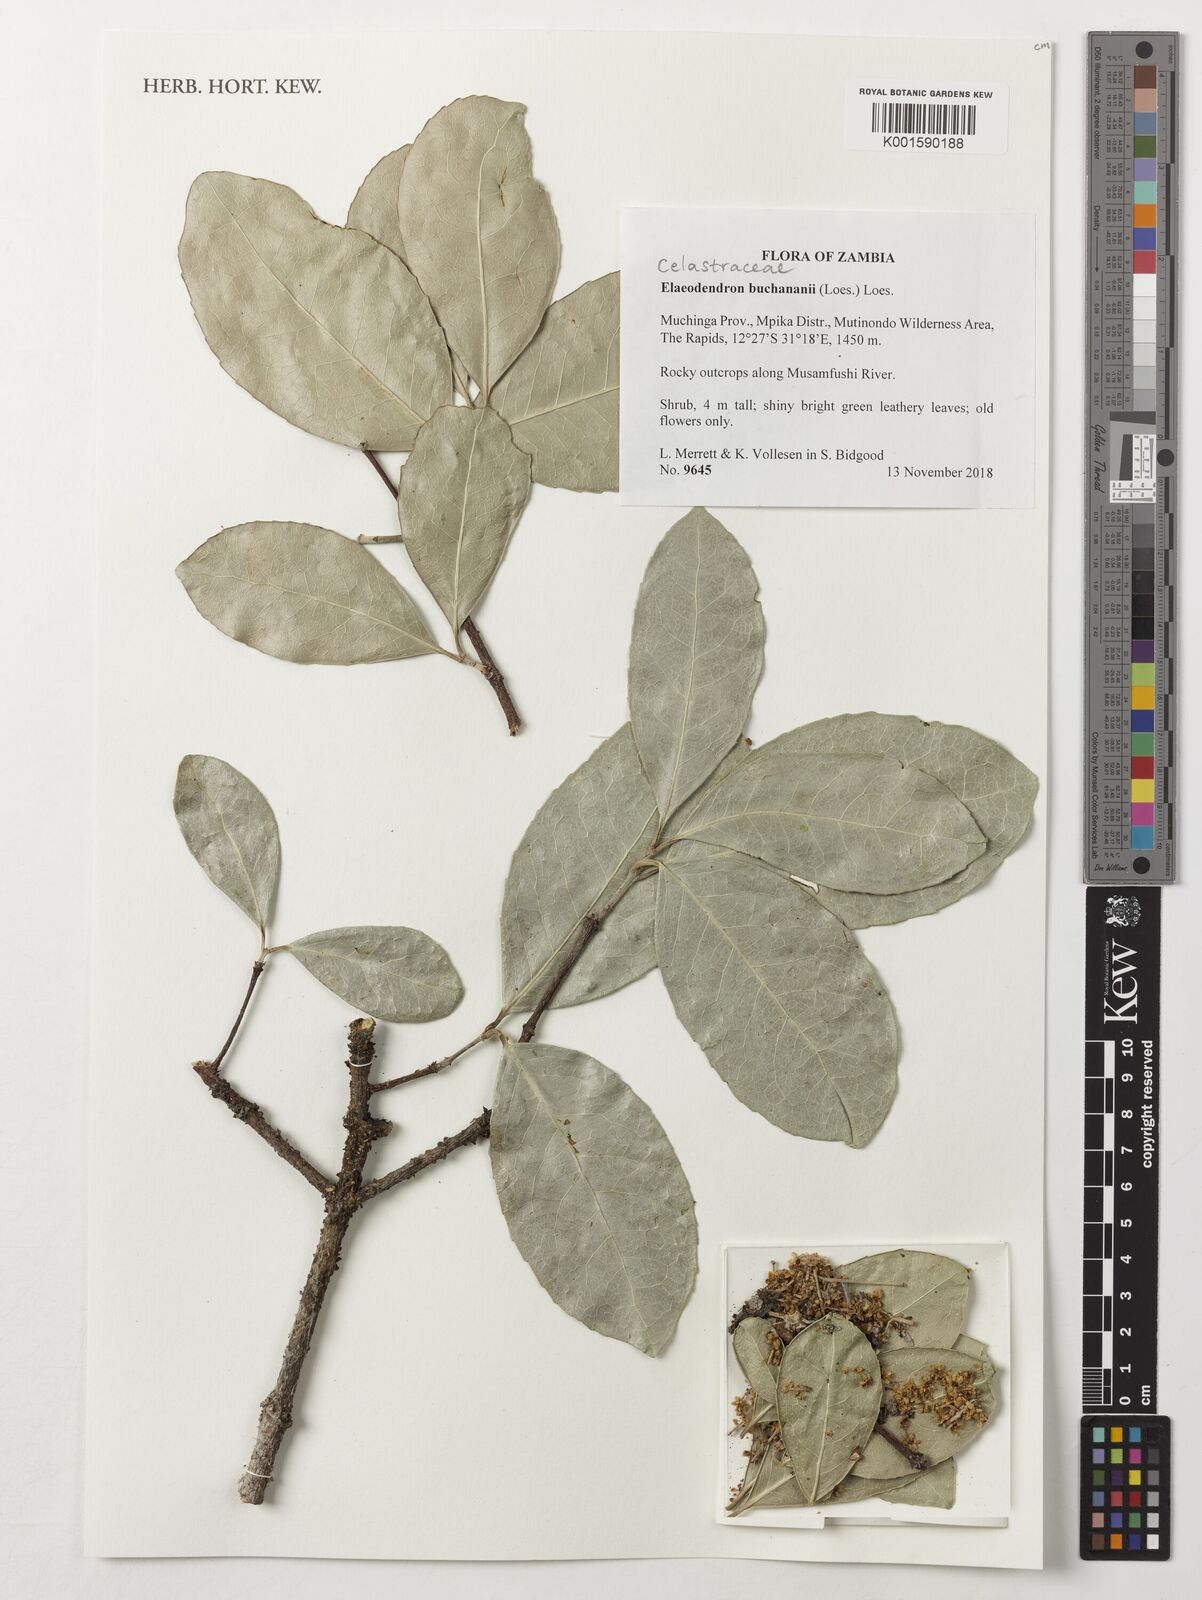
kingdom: Plantae
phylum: Tracheophyta
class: Magnoliopsida
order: Celastrales
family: Celastraceae
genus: Elaeodendron
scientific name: Elaeodendron buchananii
